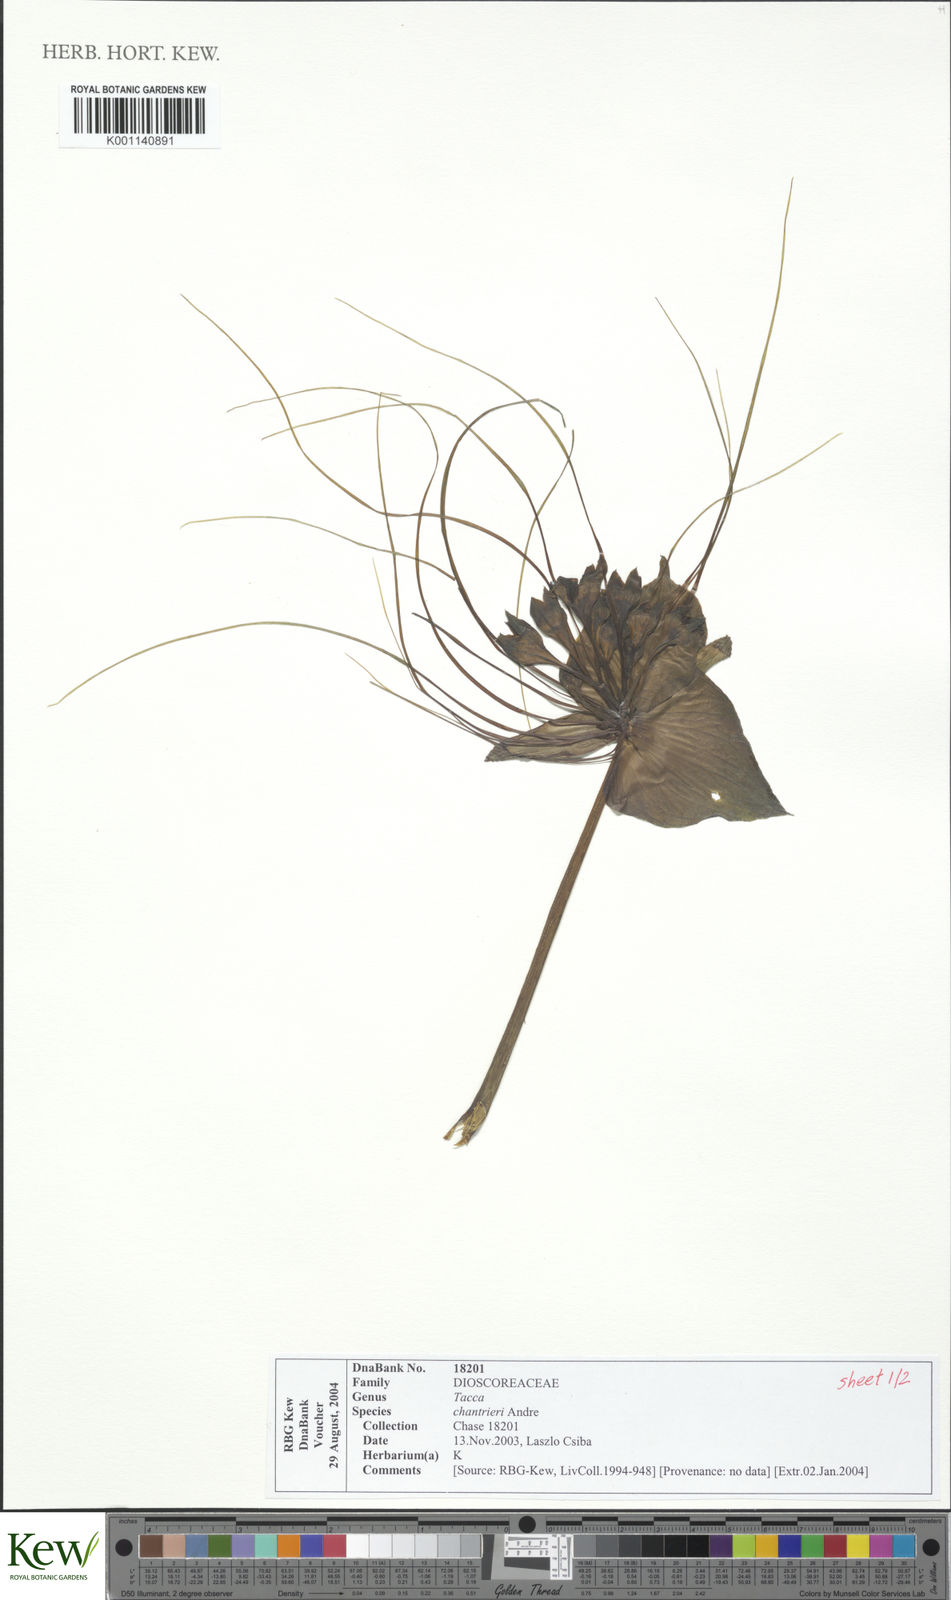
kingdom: Plantae
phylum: Tracheophyta
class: Liliopsida
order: Dioscoreales
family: Dioscoreaceae
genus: Tacca
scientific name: Tacca
